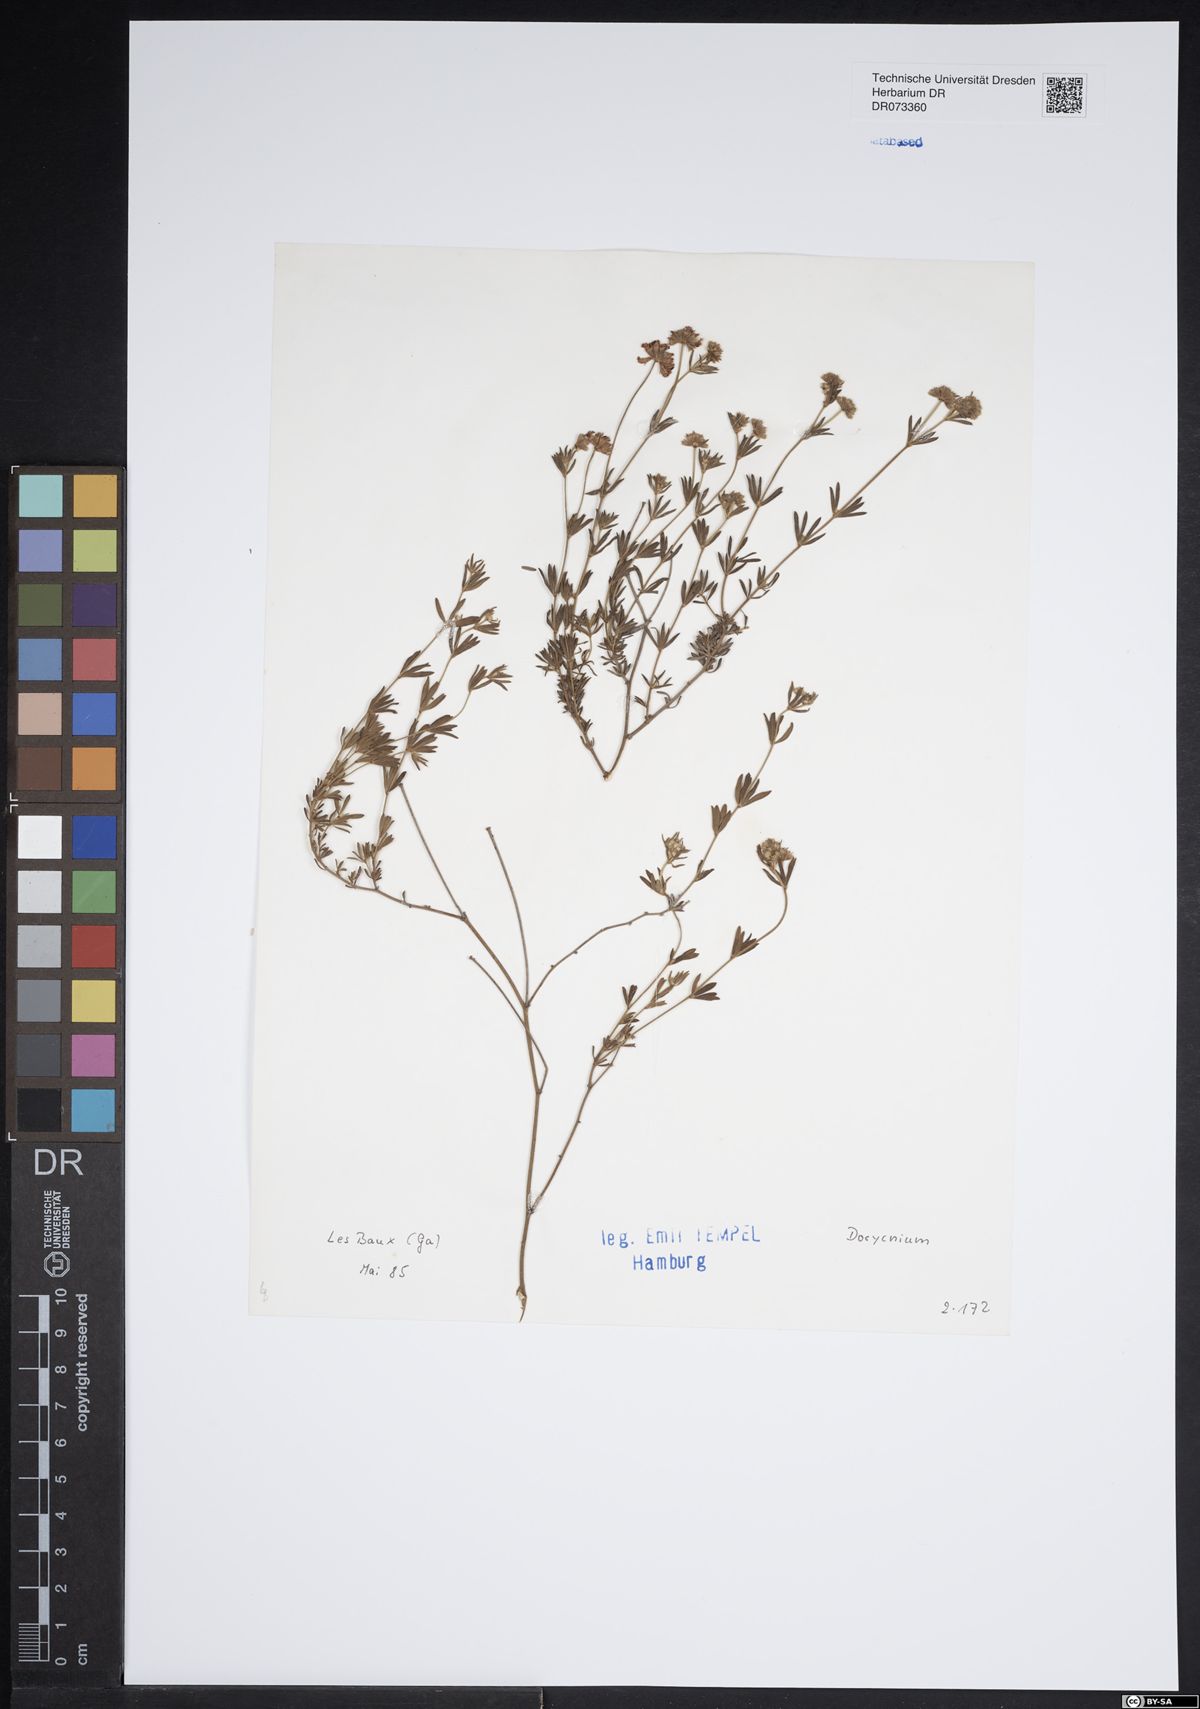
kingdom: Plantae
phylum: Tracheophyta
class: Magnoliopsida
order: Fabales
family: Fabaceae
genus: Lotus
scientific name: Lotus
